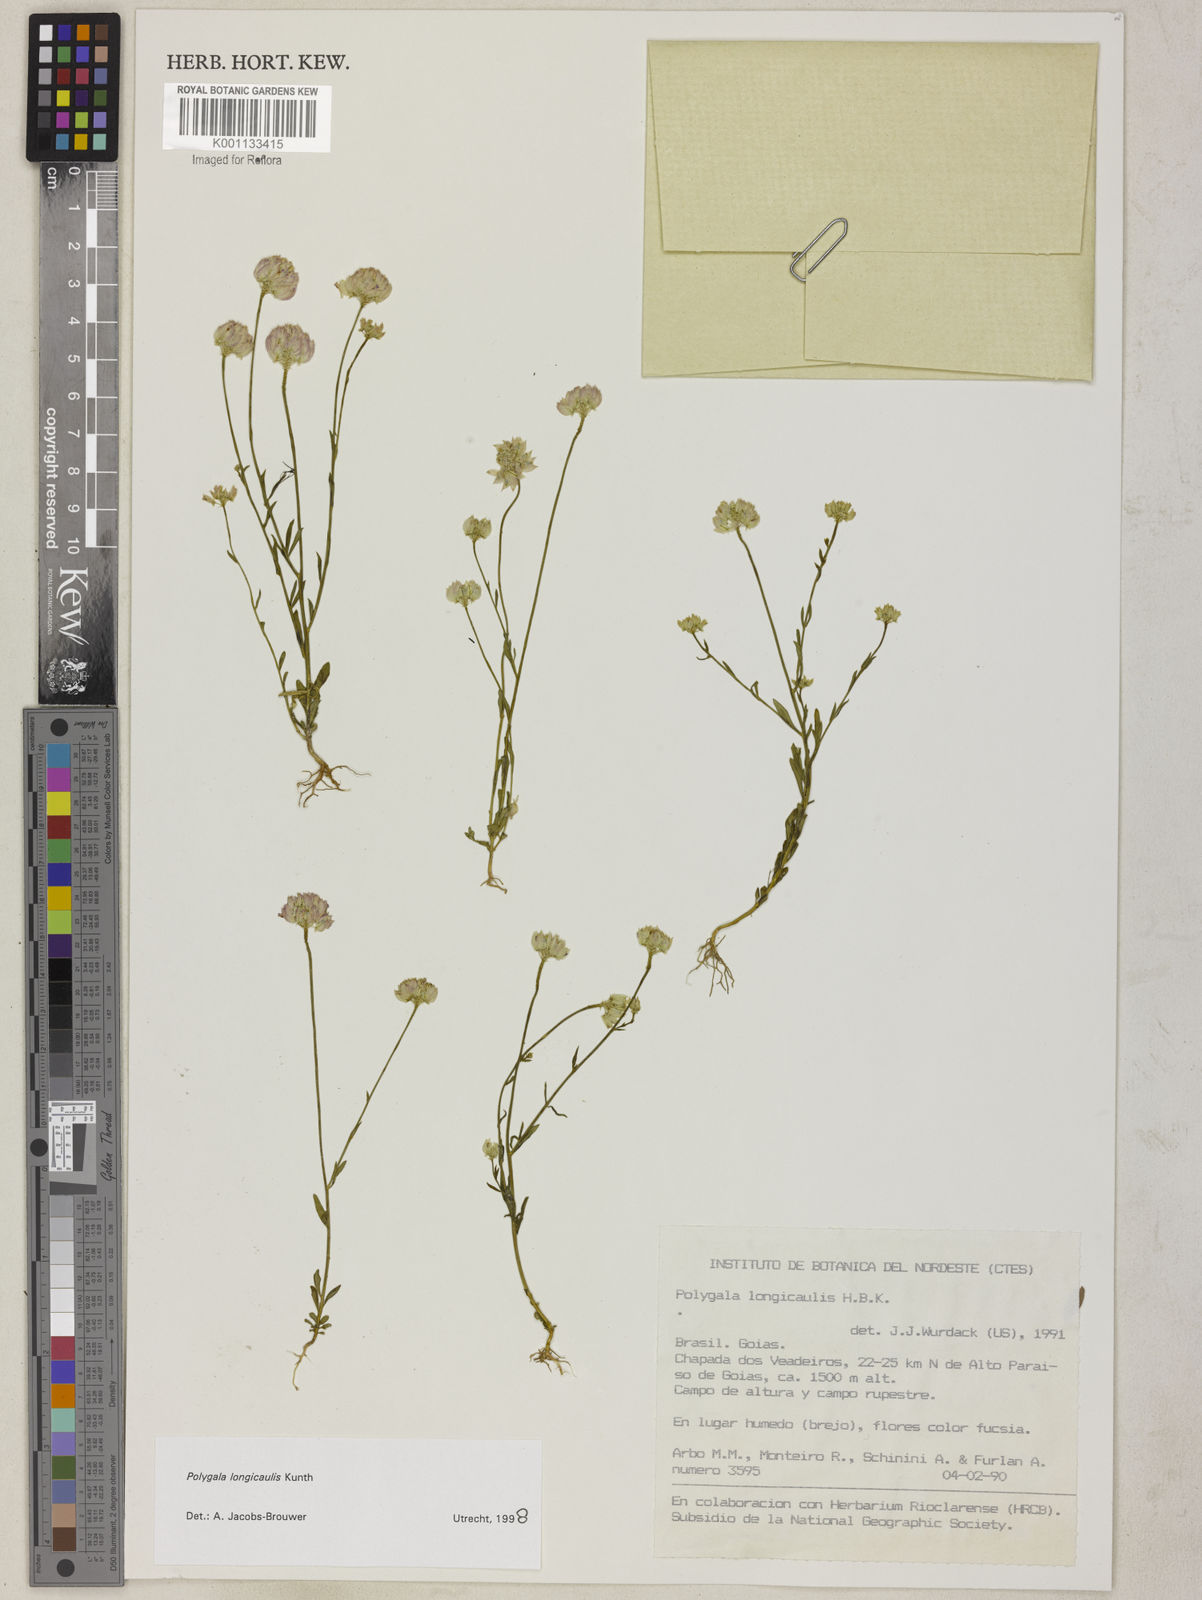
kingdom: Plantae
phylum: Tracheophyta
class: Magnoliopsida
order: Fabales
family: Polygalaceae
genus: Polygala
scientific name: Polygala longicaulis
